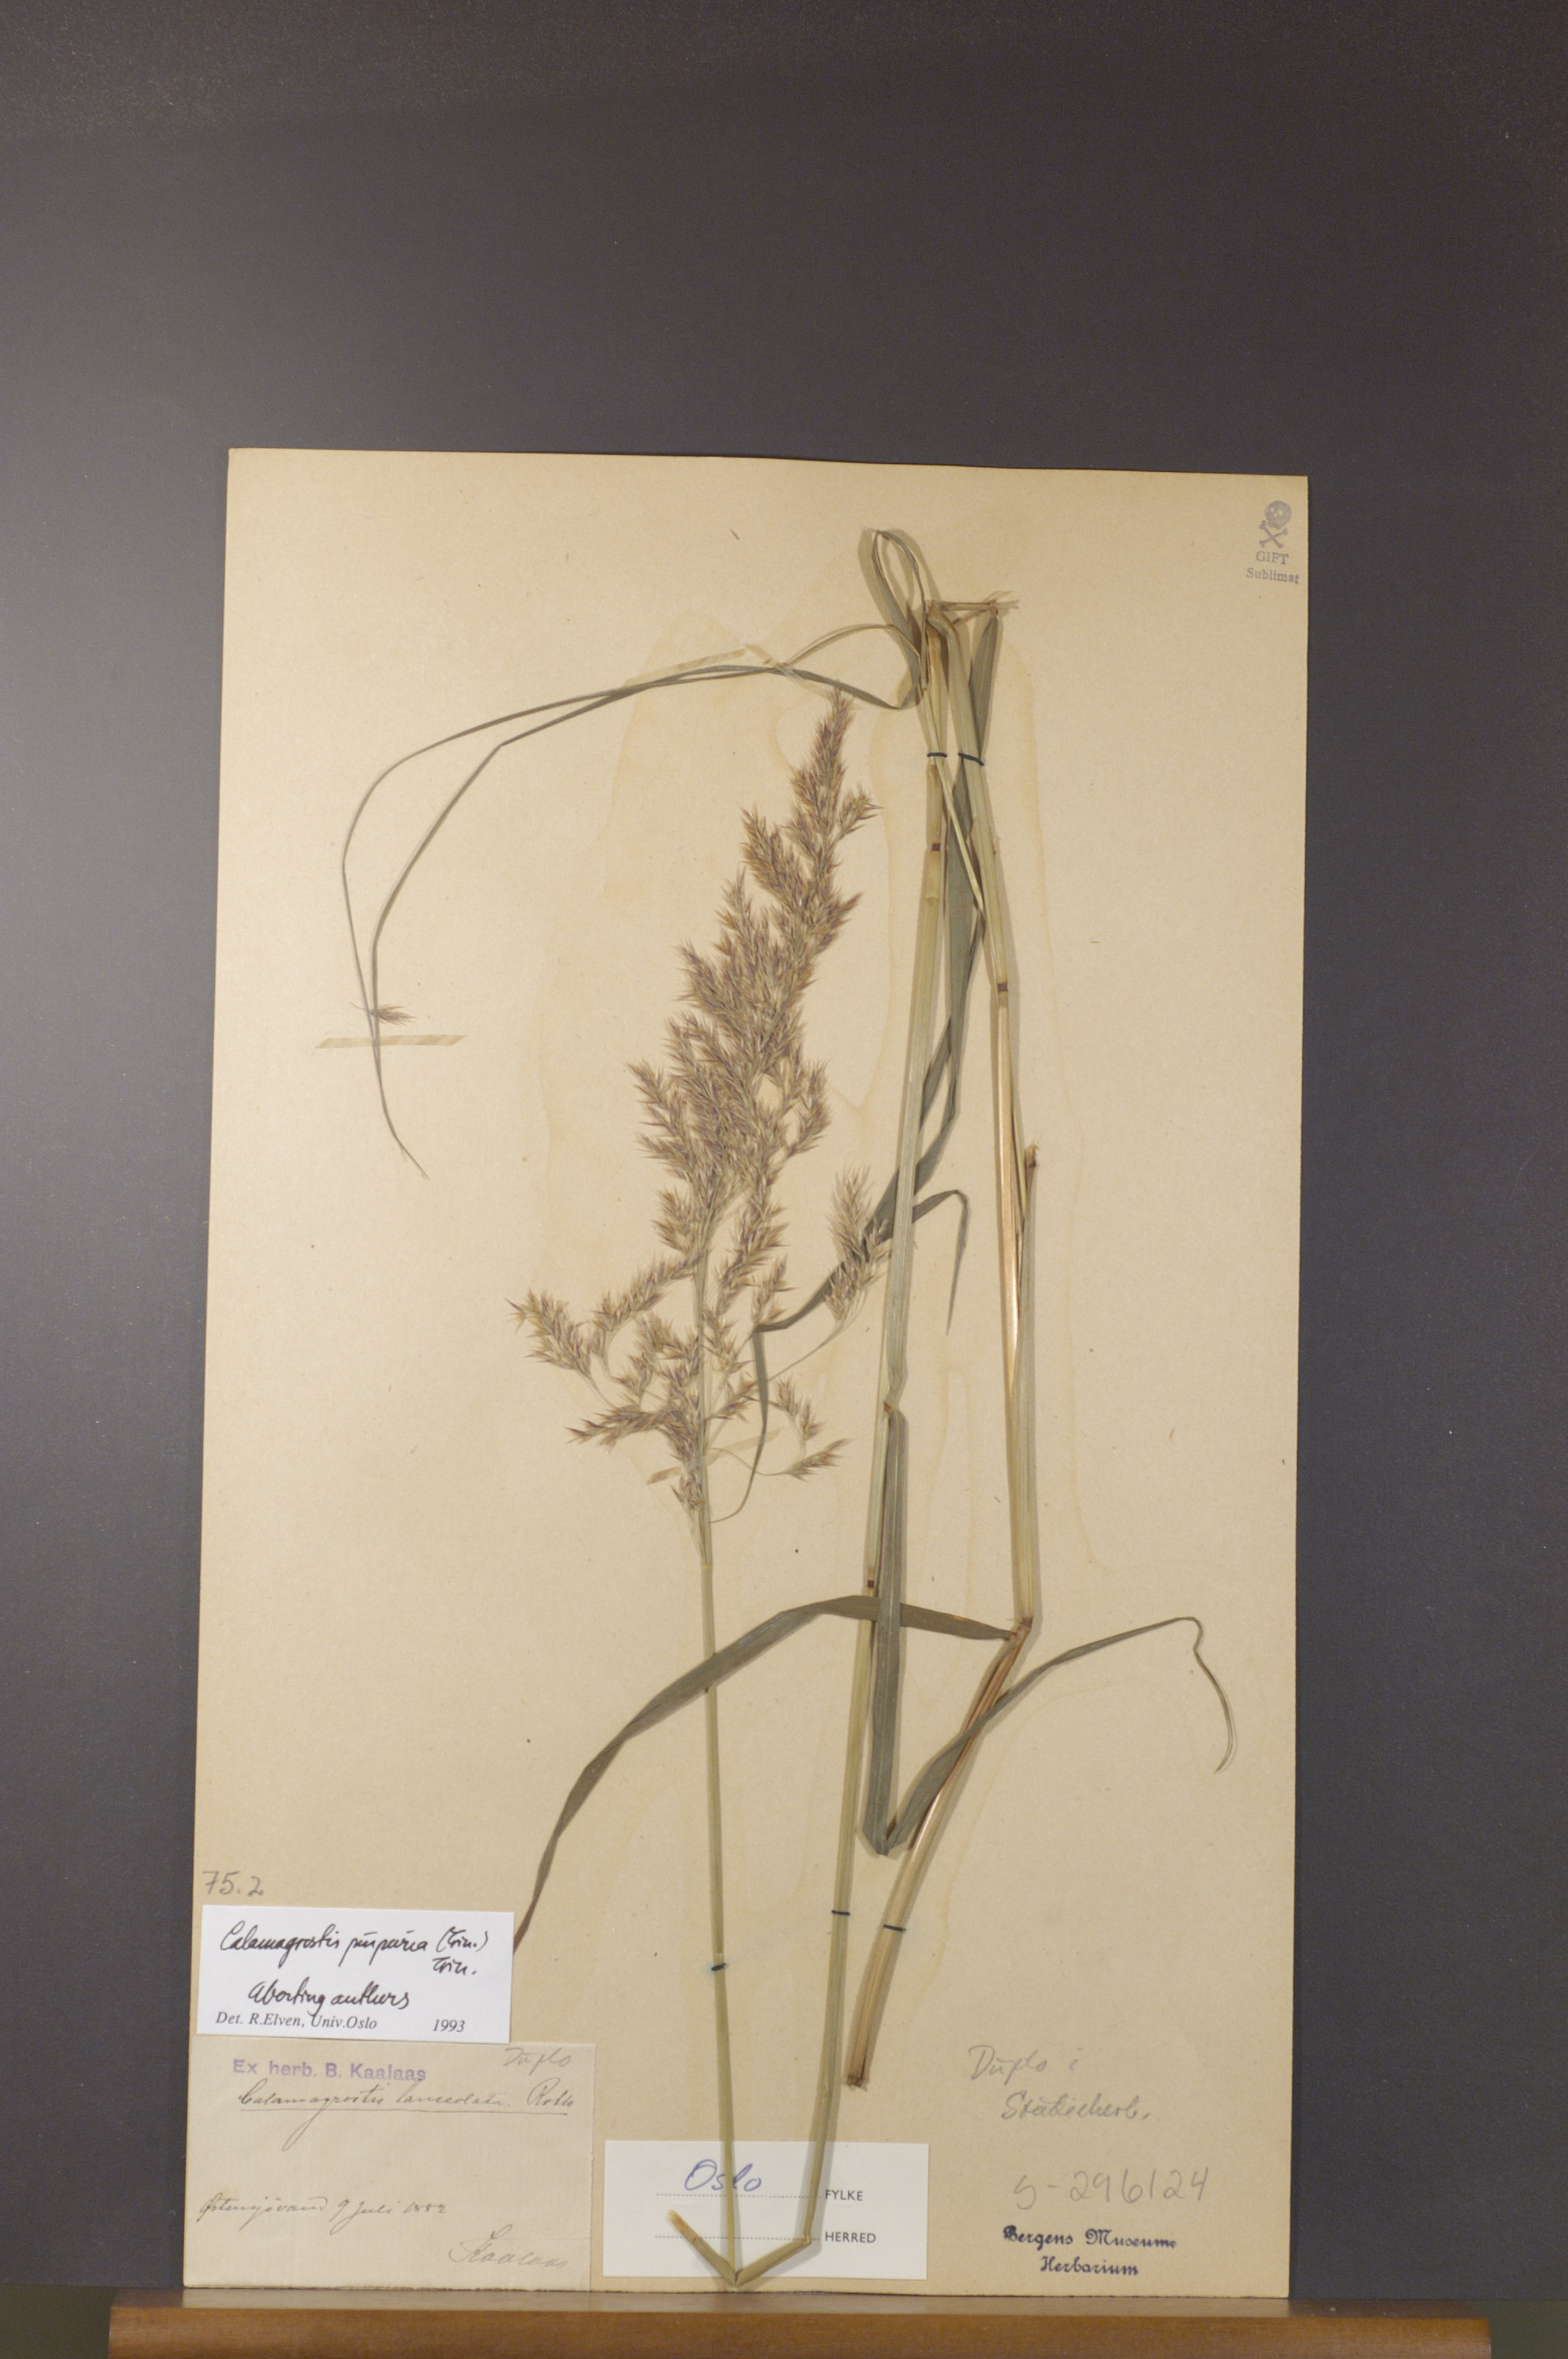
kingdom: Plantae
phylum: Tracheophyta
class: Liliopsida
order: Poales
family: Poaceae
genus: Calamagrostis
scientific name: Calamagrostis purpurea
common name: Scandinavian small-reed
